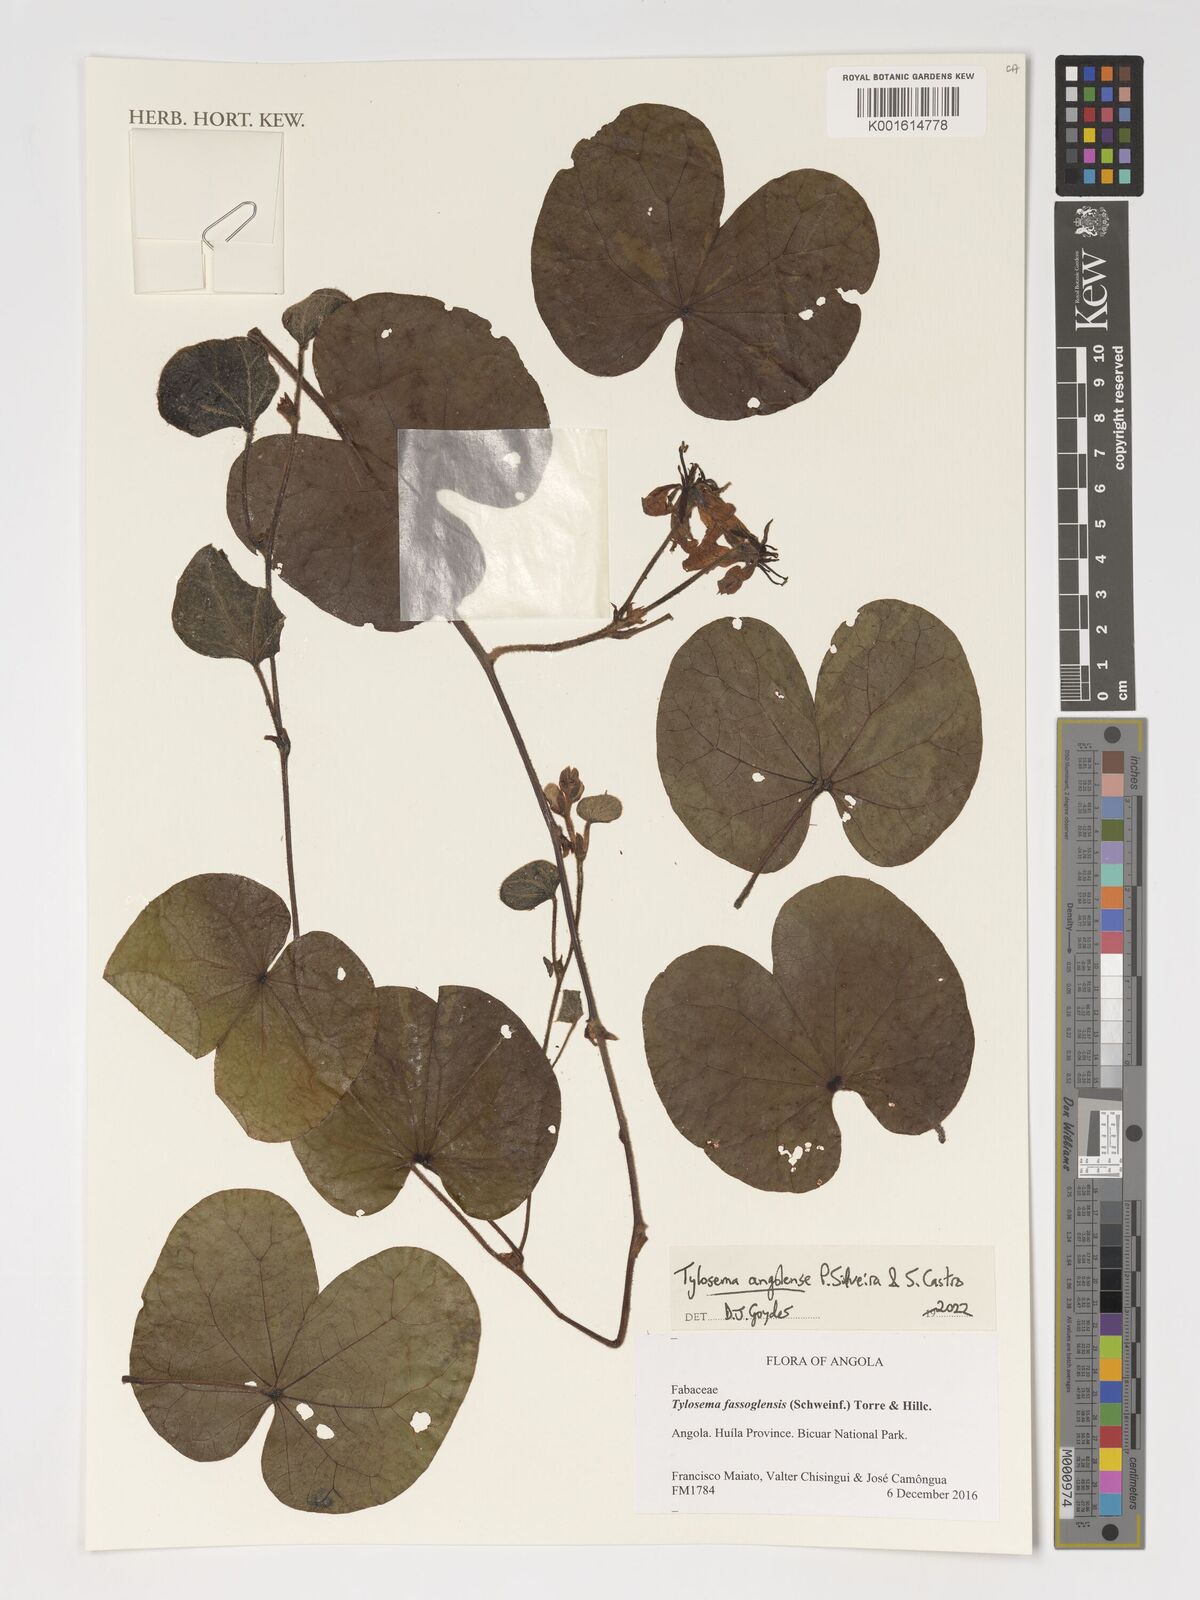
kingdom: Plantae
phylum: Tracheophyta
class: Magnoliopsida
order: Fabales
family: Fabaceae
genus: Tylosema
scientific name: Tylosema angolense
